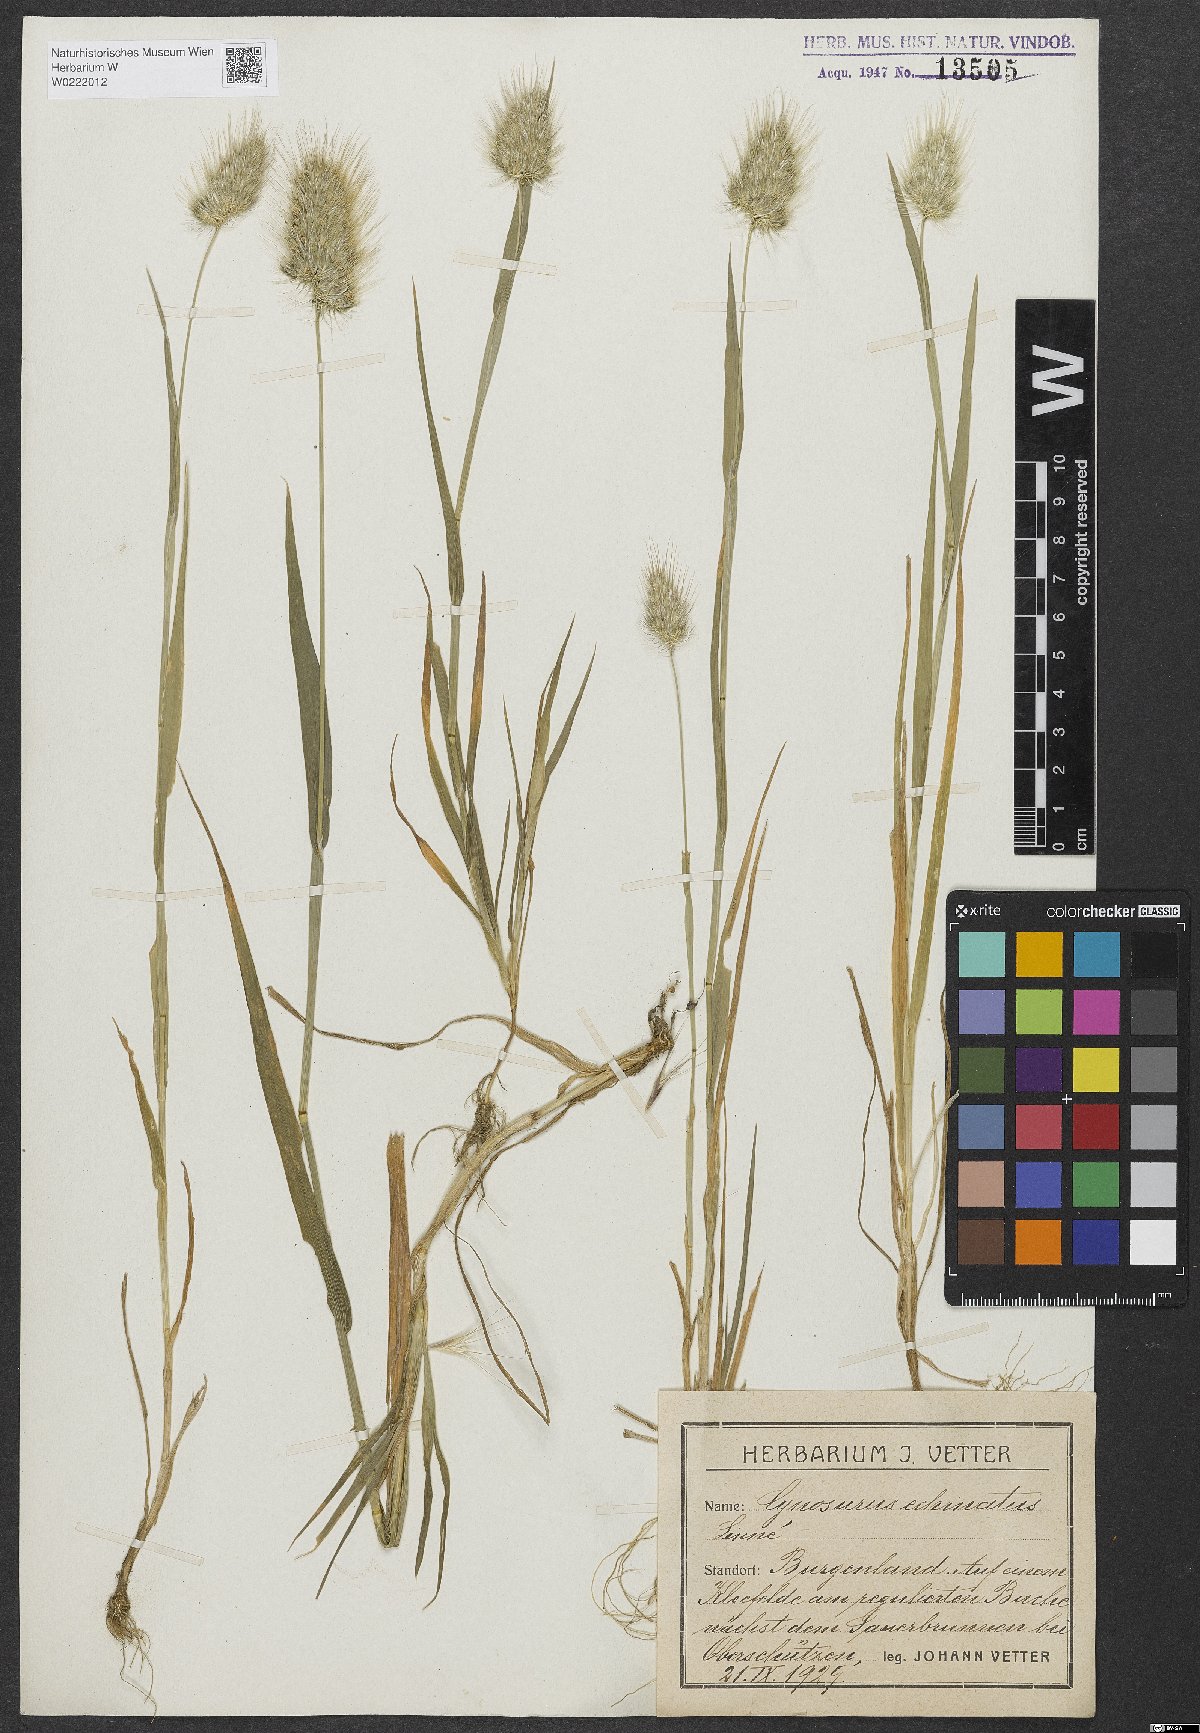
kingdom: Plantae
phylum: Tracheophyta
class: Liliopsida
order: Poales
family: Poaceae
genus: Cynosurus
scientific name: Cynosurus echinatus
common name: Rough dog's-tail
